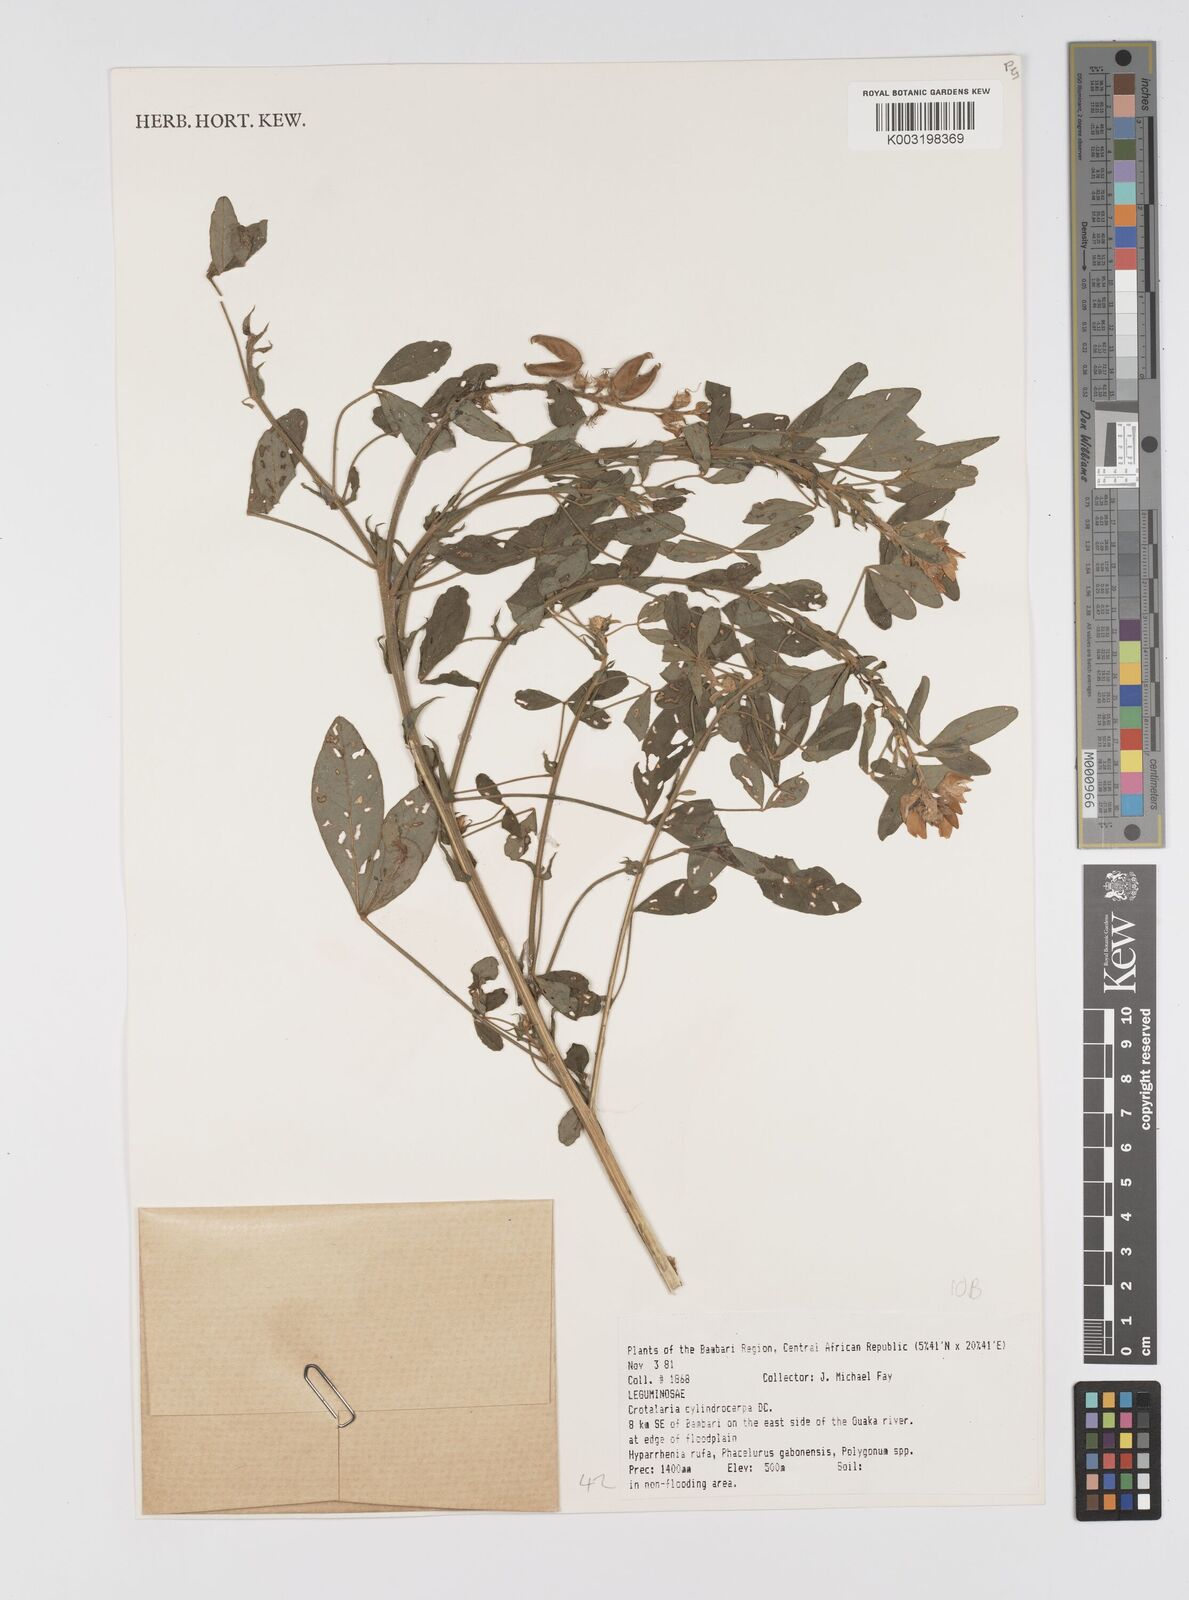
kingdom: Plantae
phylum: Tracheophyta
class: Magnoliopsida
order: Fabales
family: Fabaceae
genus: Crotalaria
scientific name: Crotalaria cylindrocarpa
